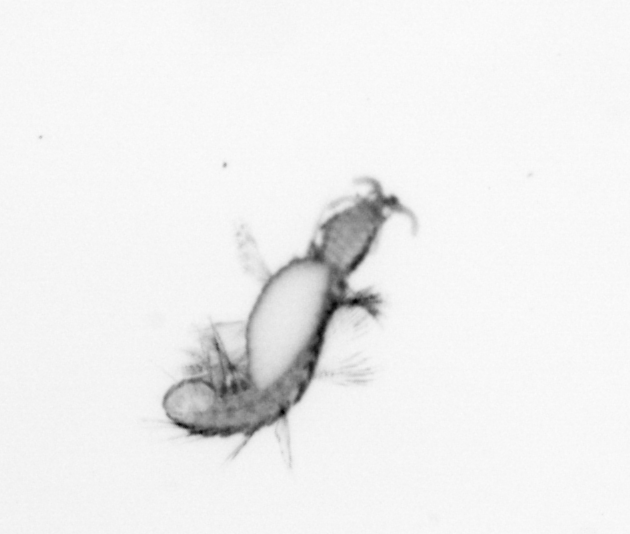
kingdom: Animalia
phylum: Annelida
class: Polychaeta
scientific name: Polychaeta
